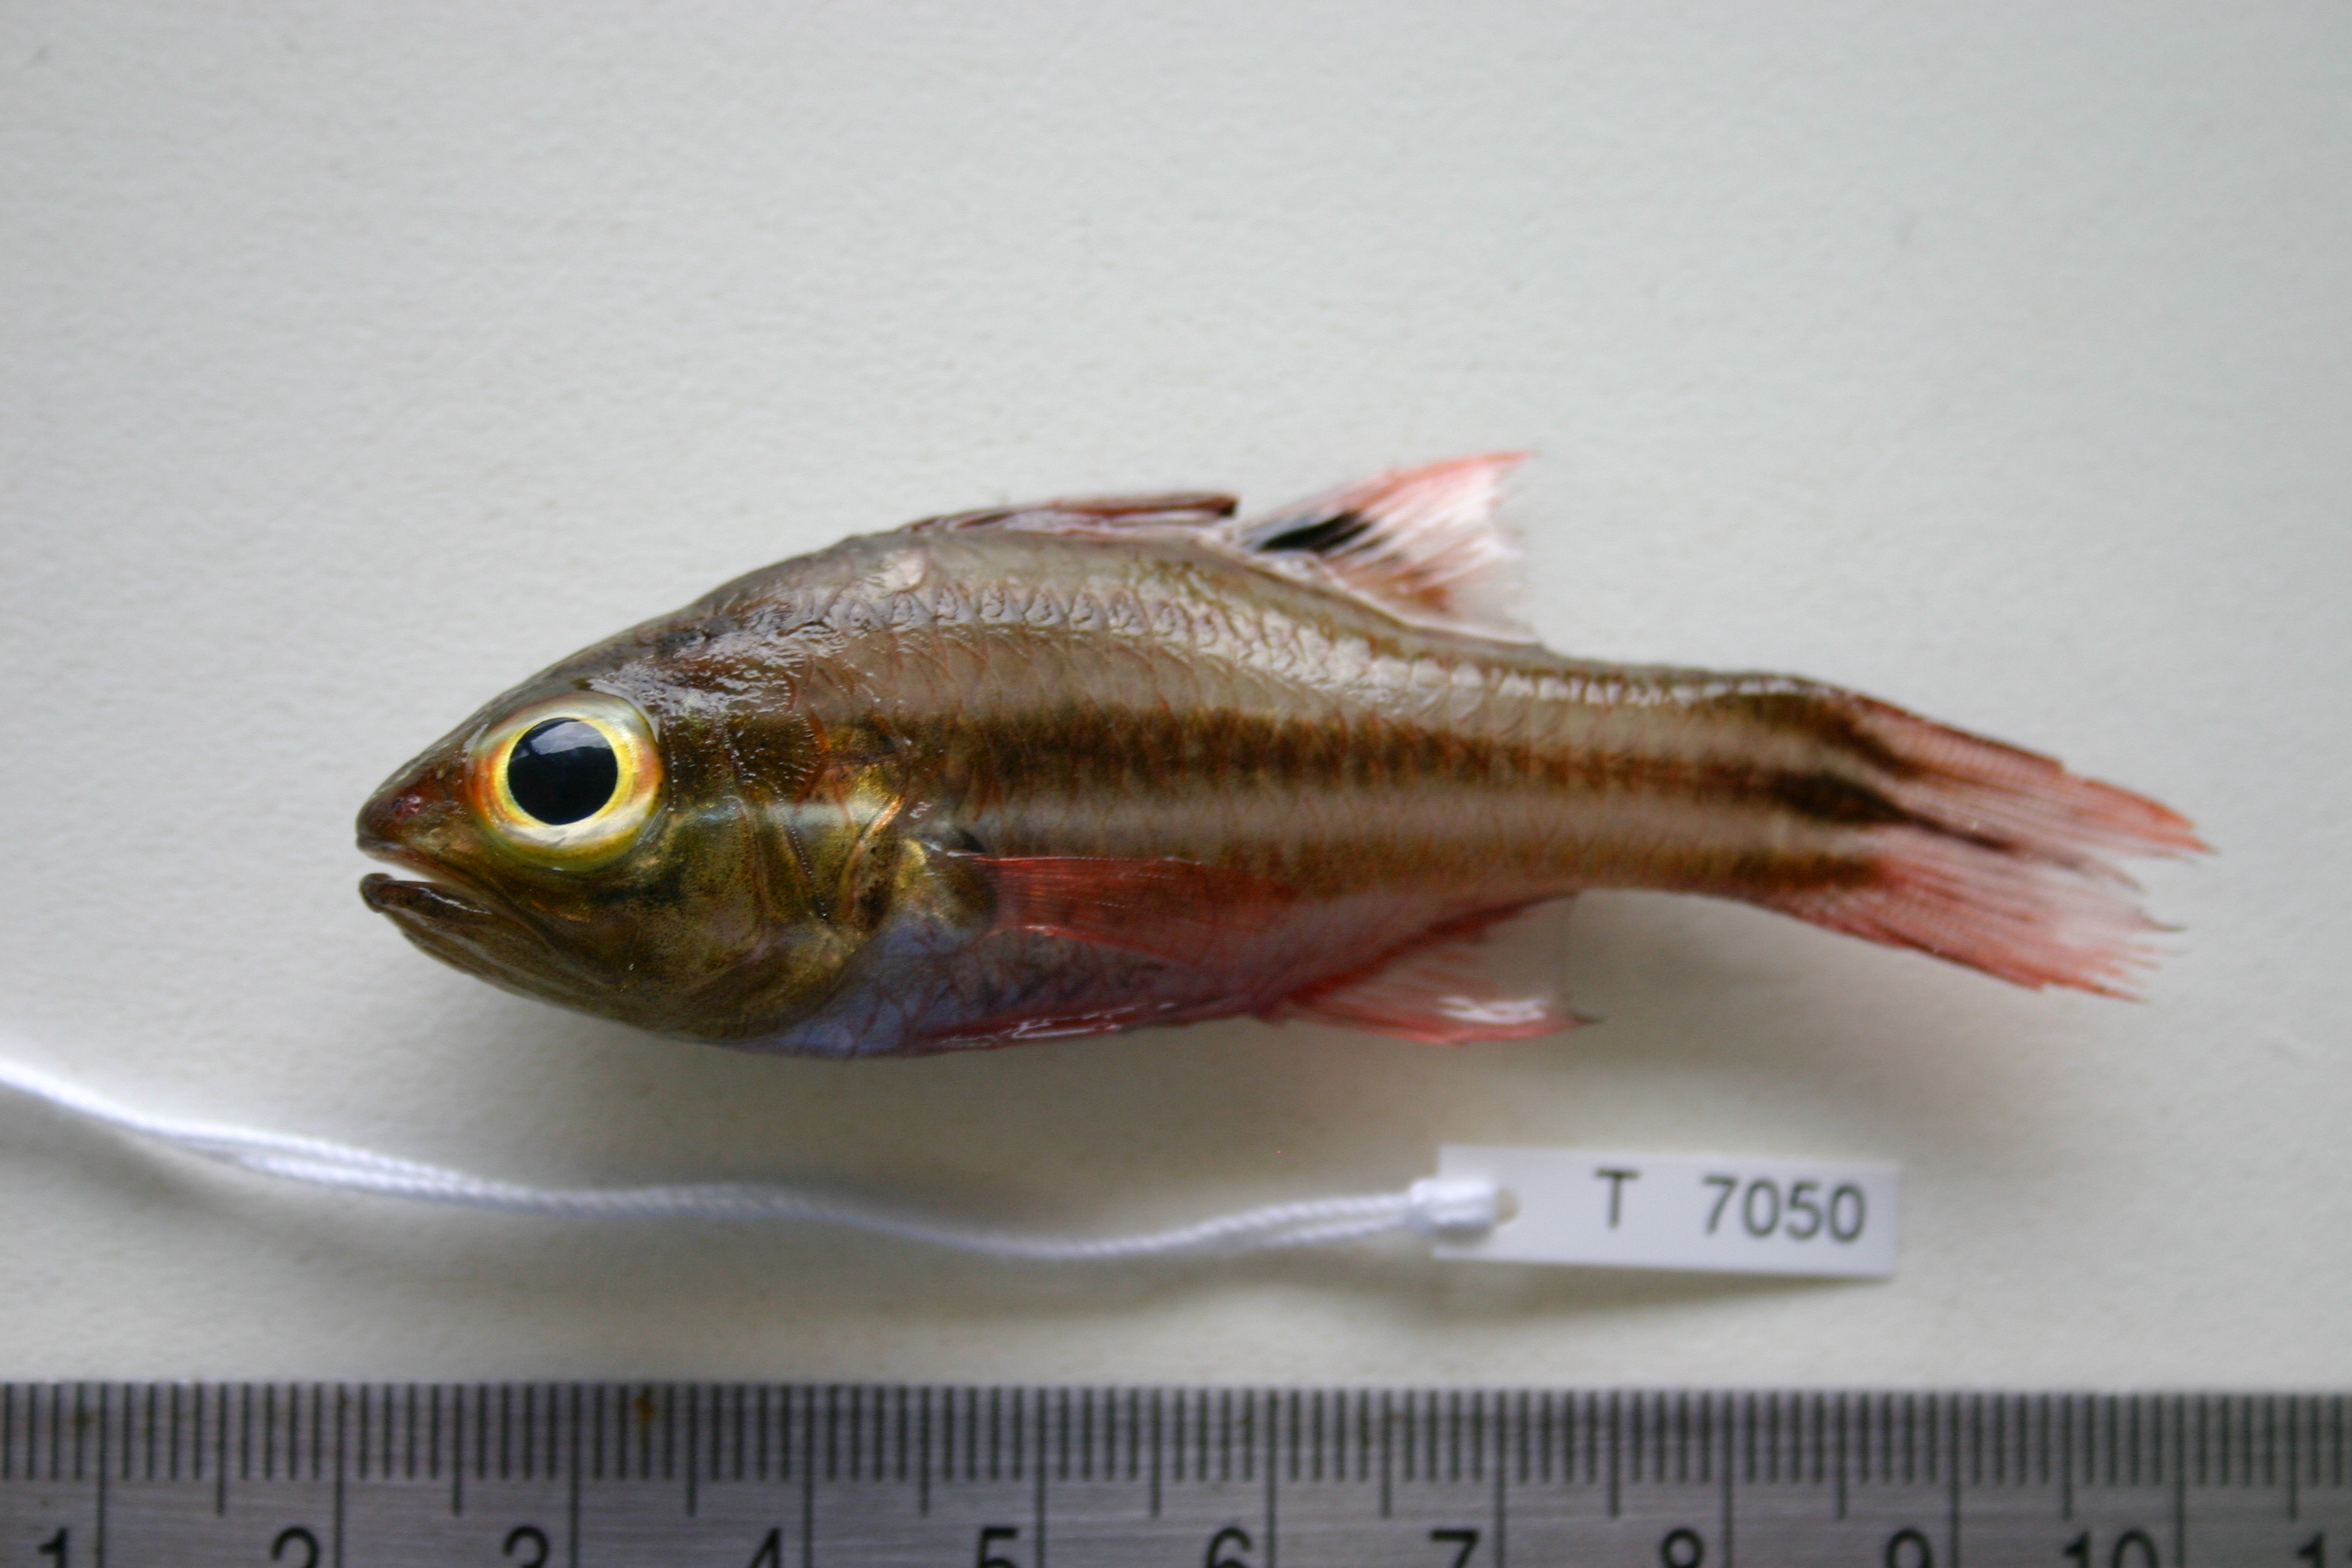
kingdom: Animalia
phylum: Chordata
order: Perciformes
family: Apogonidae
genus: Ostorhinchus
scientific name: Ostorhinchus taeniophorus
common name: Reef-flat cardinalfish
